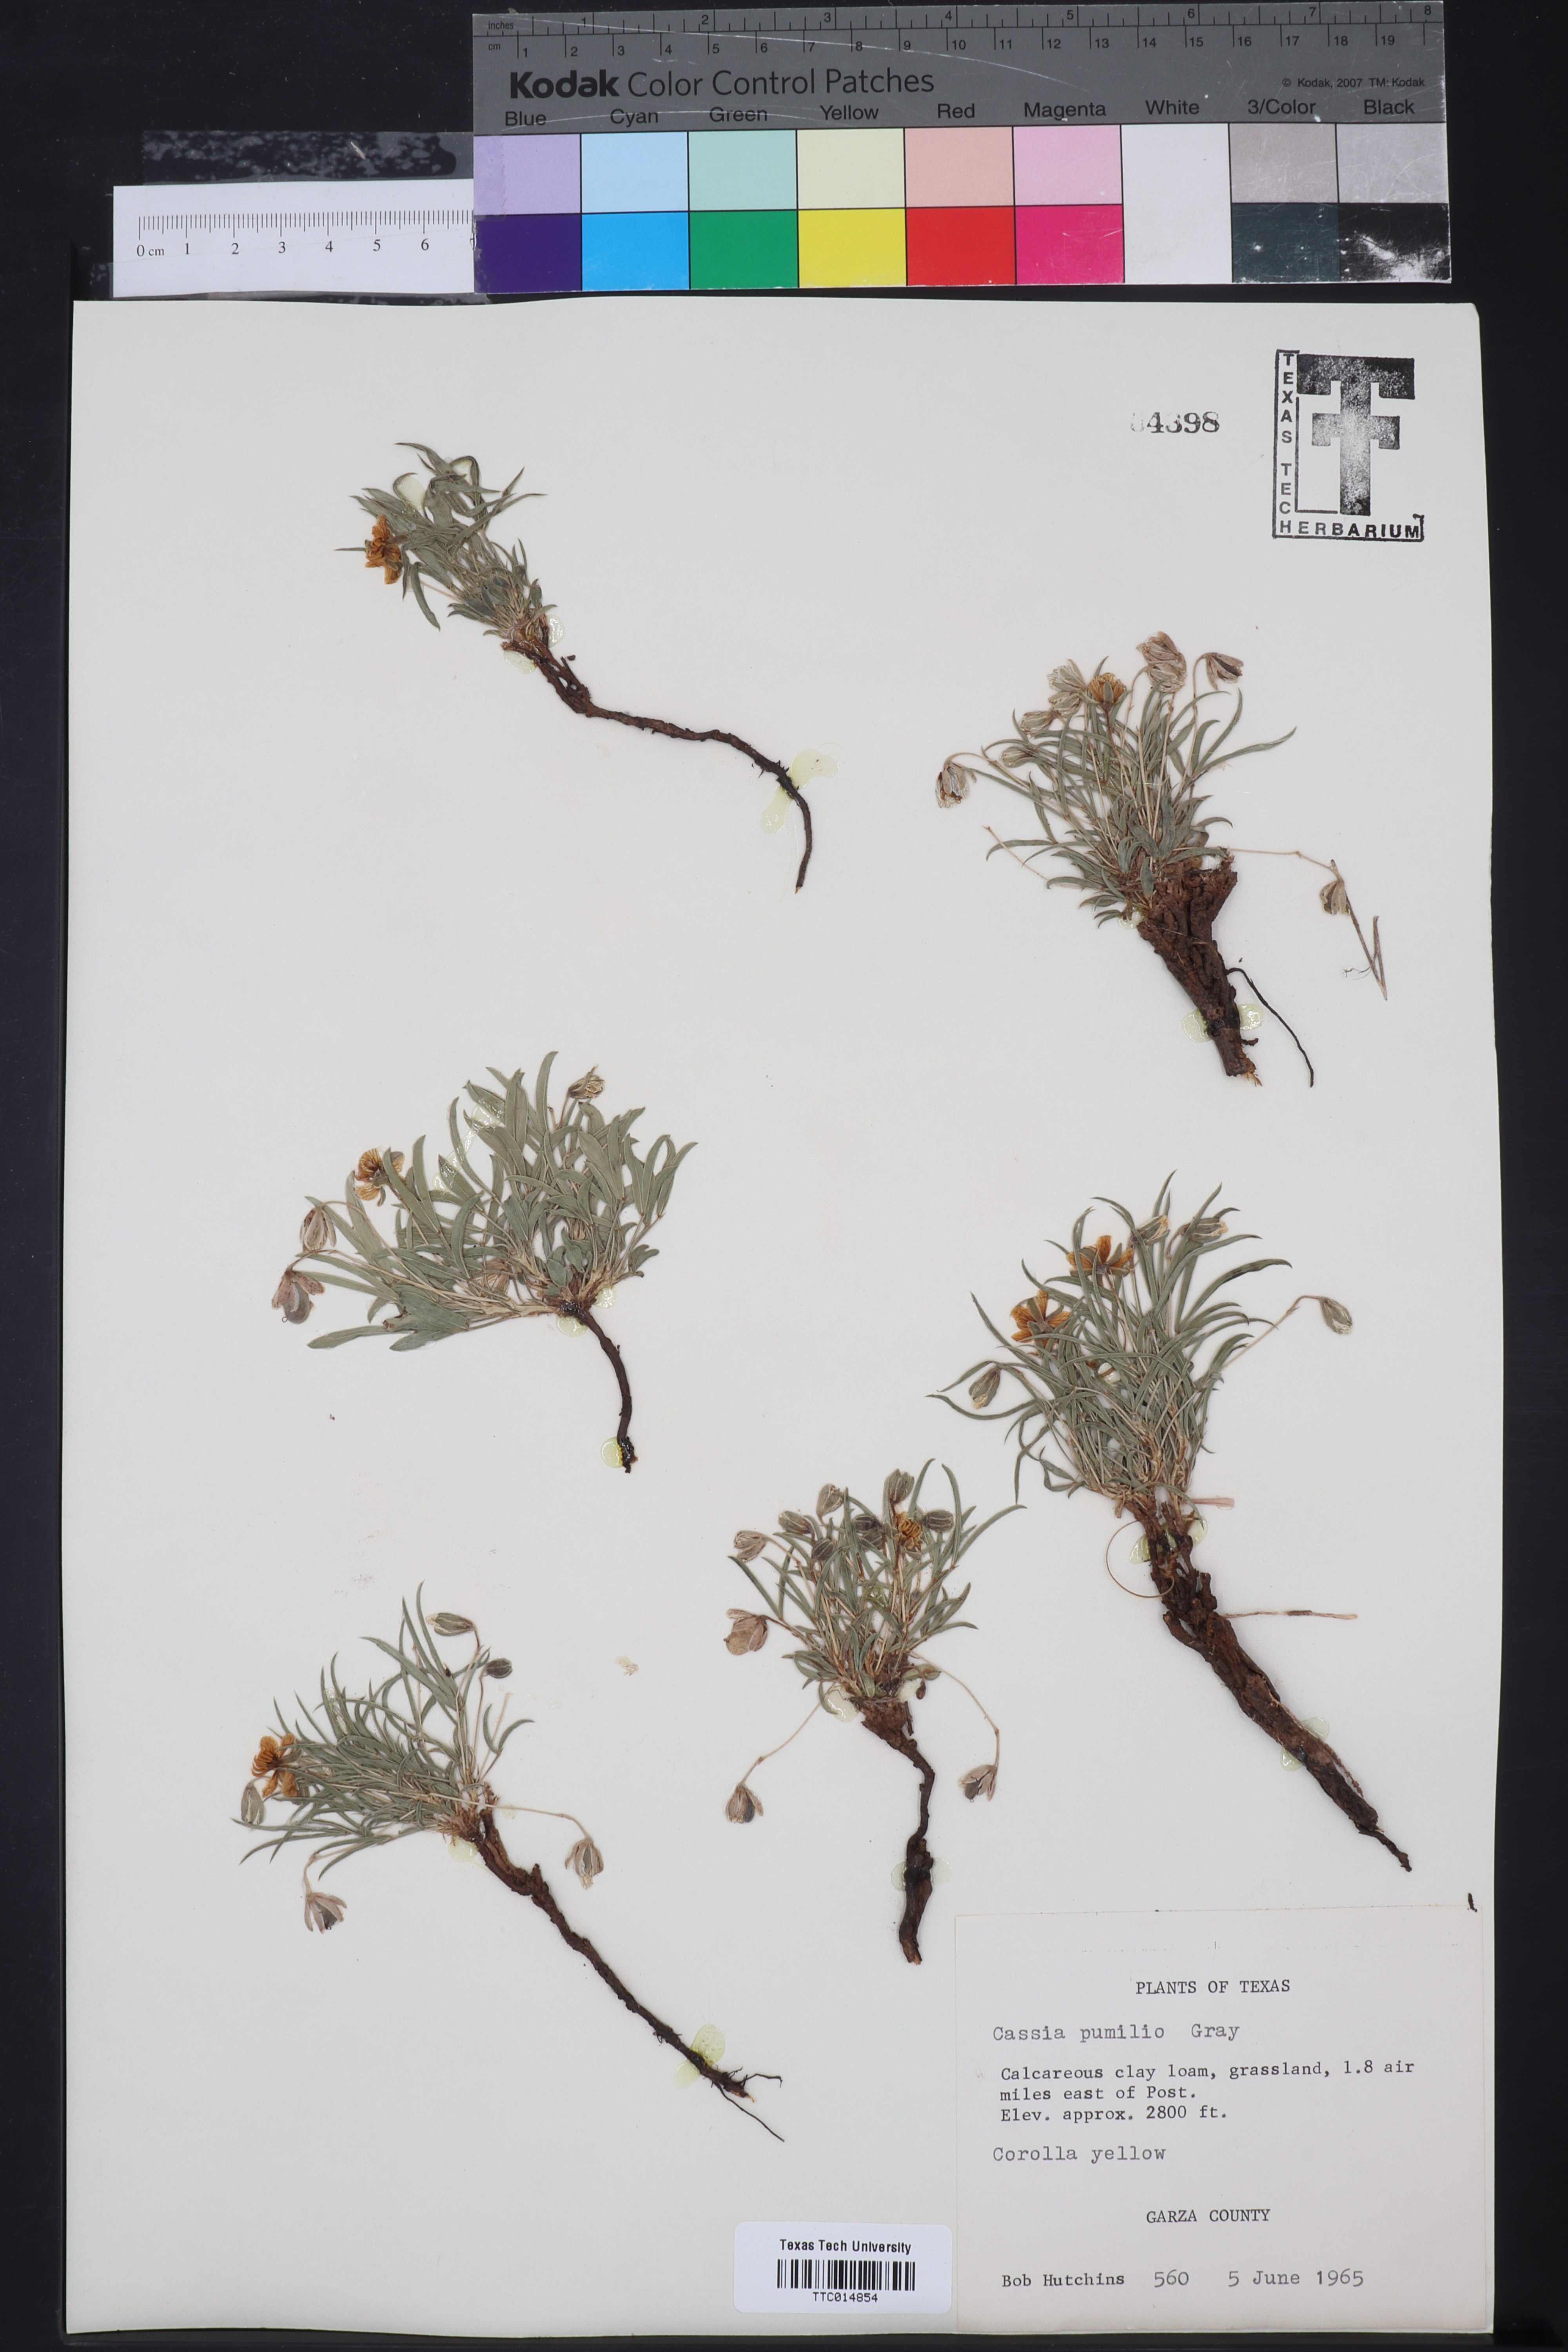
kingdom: Plantae
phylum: Tracheophyta
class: Magnoliopsida
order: Fabales
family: Fabaceae
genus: Senna
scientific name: Senna pumilio
